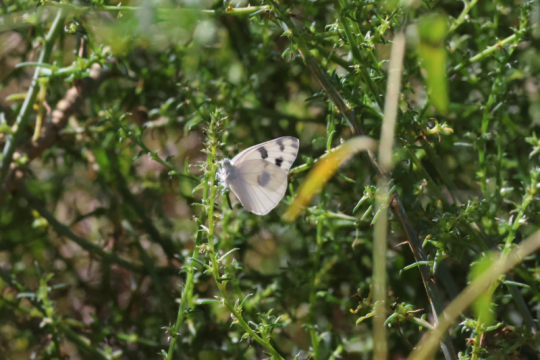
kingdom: Animalia
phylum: Arthropoda
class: Insecta
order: Lepidoptera
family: Pieridae
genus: Pontia
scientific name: Pontia protodice
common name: Checkered White
